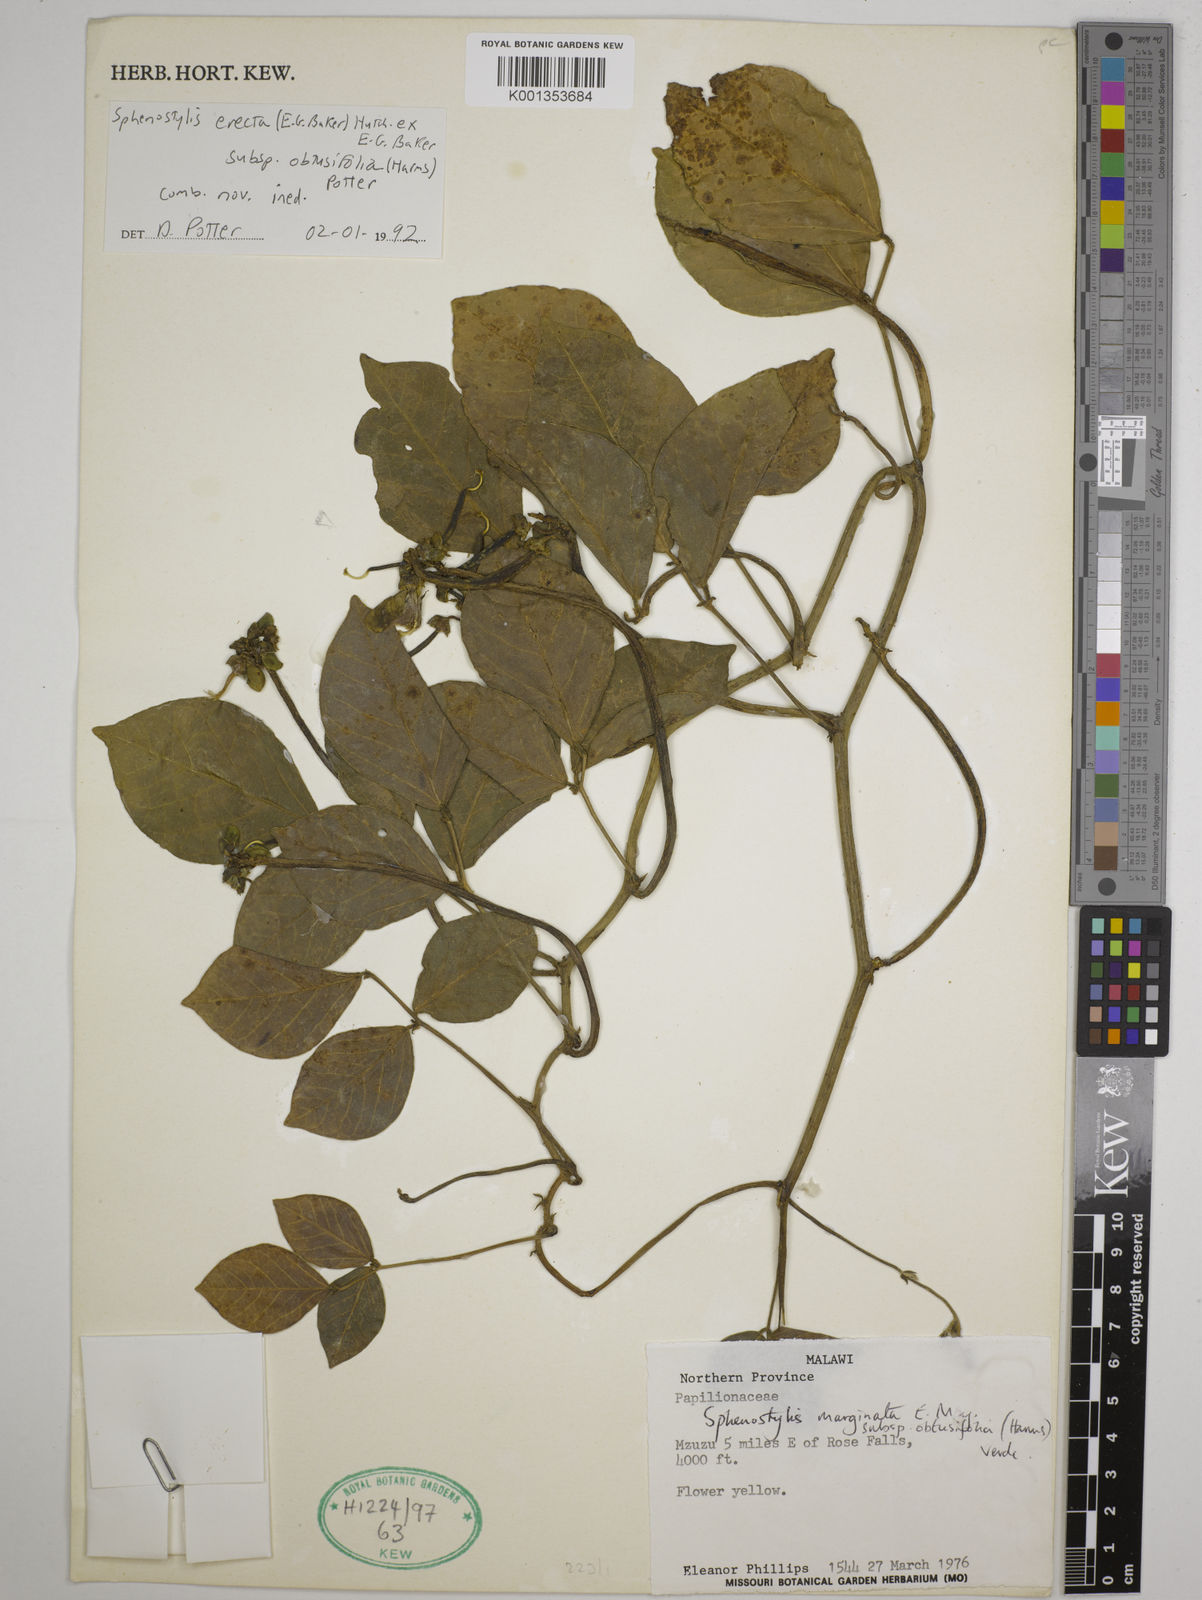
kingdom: Plantae
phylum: Tracheophyta
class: Magnoliopsida
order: Fabales
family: Fabaceae
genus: Sphenostylis
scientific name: Sphenostylis erecta
